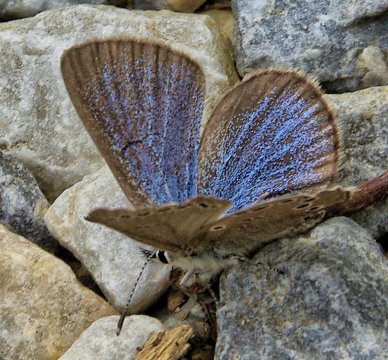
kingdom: Animalia
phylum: Arthropoda
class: Insecta
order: Lepidoptera
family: Lycaenidae
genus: Glaucopsyche
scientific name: Glaucopsyche lygdamus
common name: Silvery Blue
